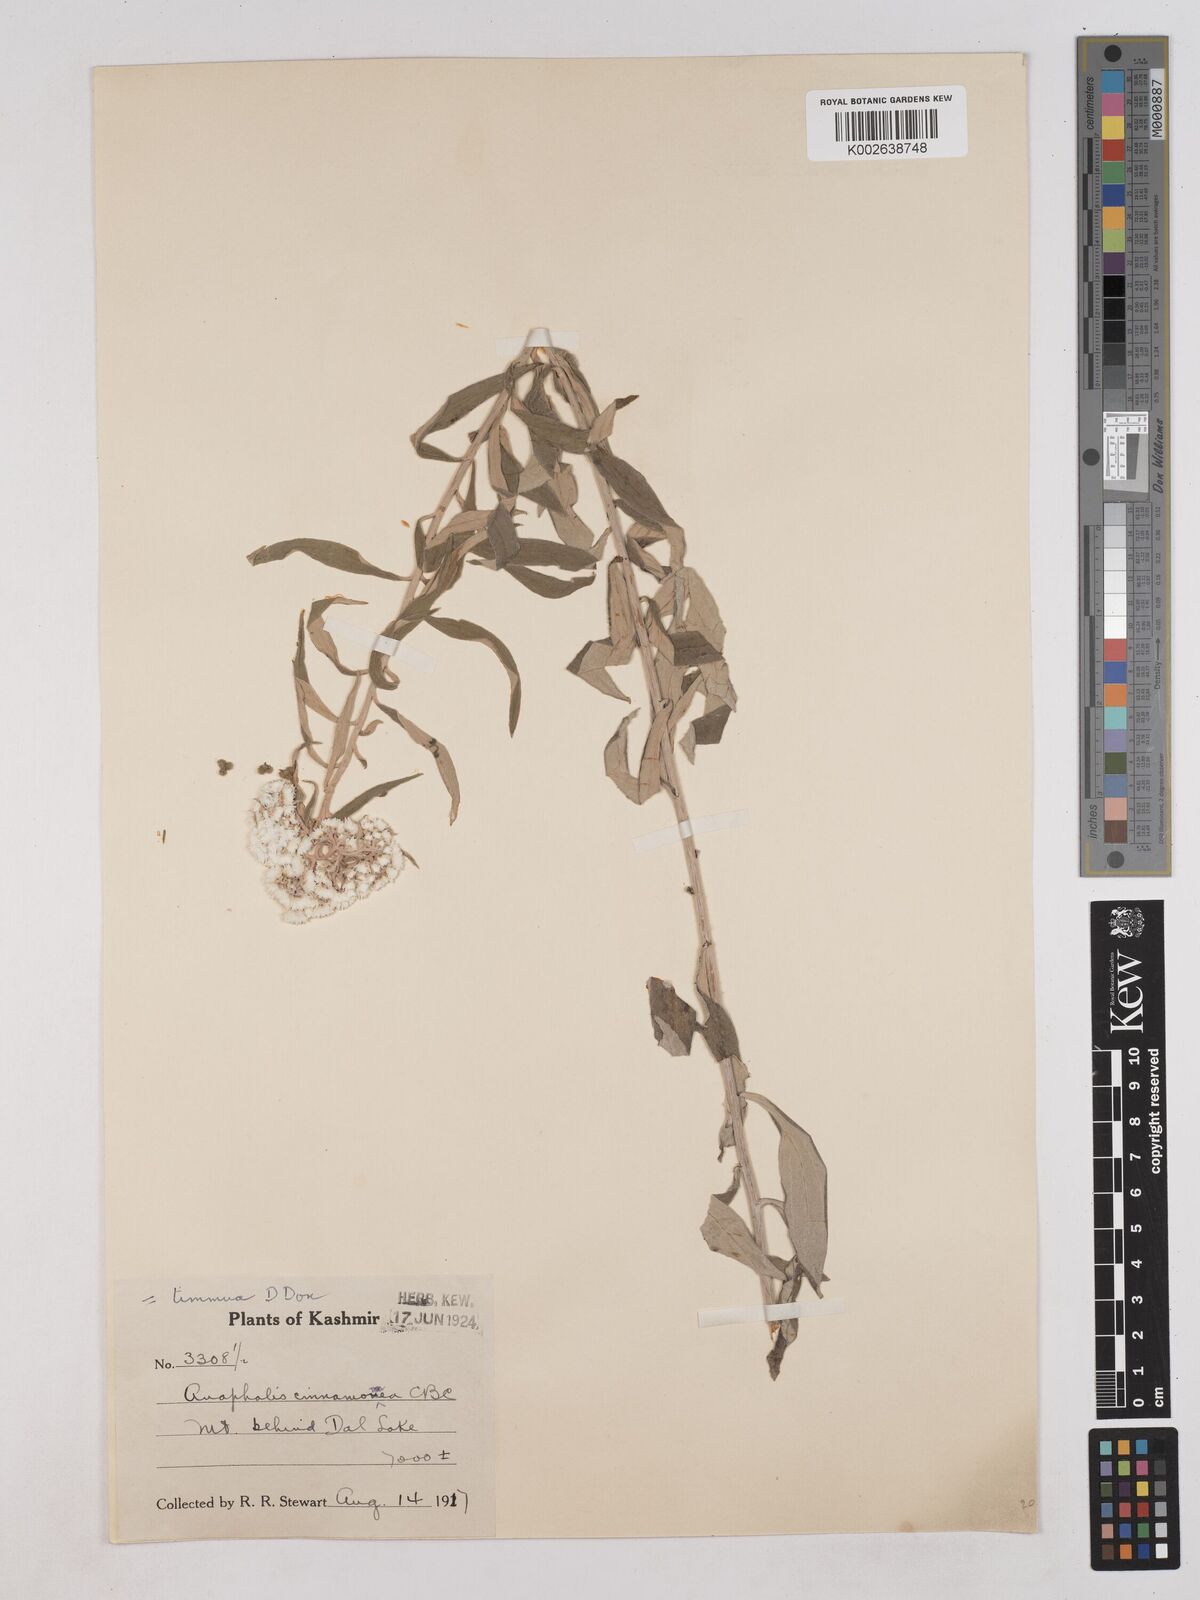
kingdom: Plantae
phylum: Tracheophyta
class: Magnoliopsida
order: Asterales
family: Asteraceae
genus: Anaphalis
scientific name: Anaphalis marcescens
